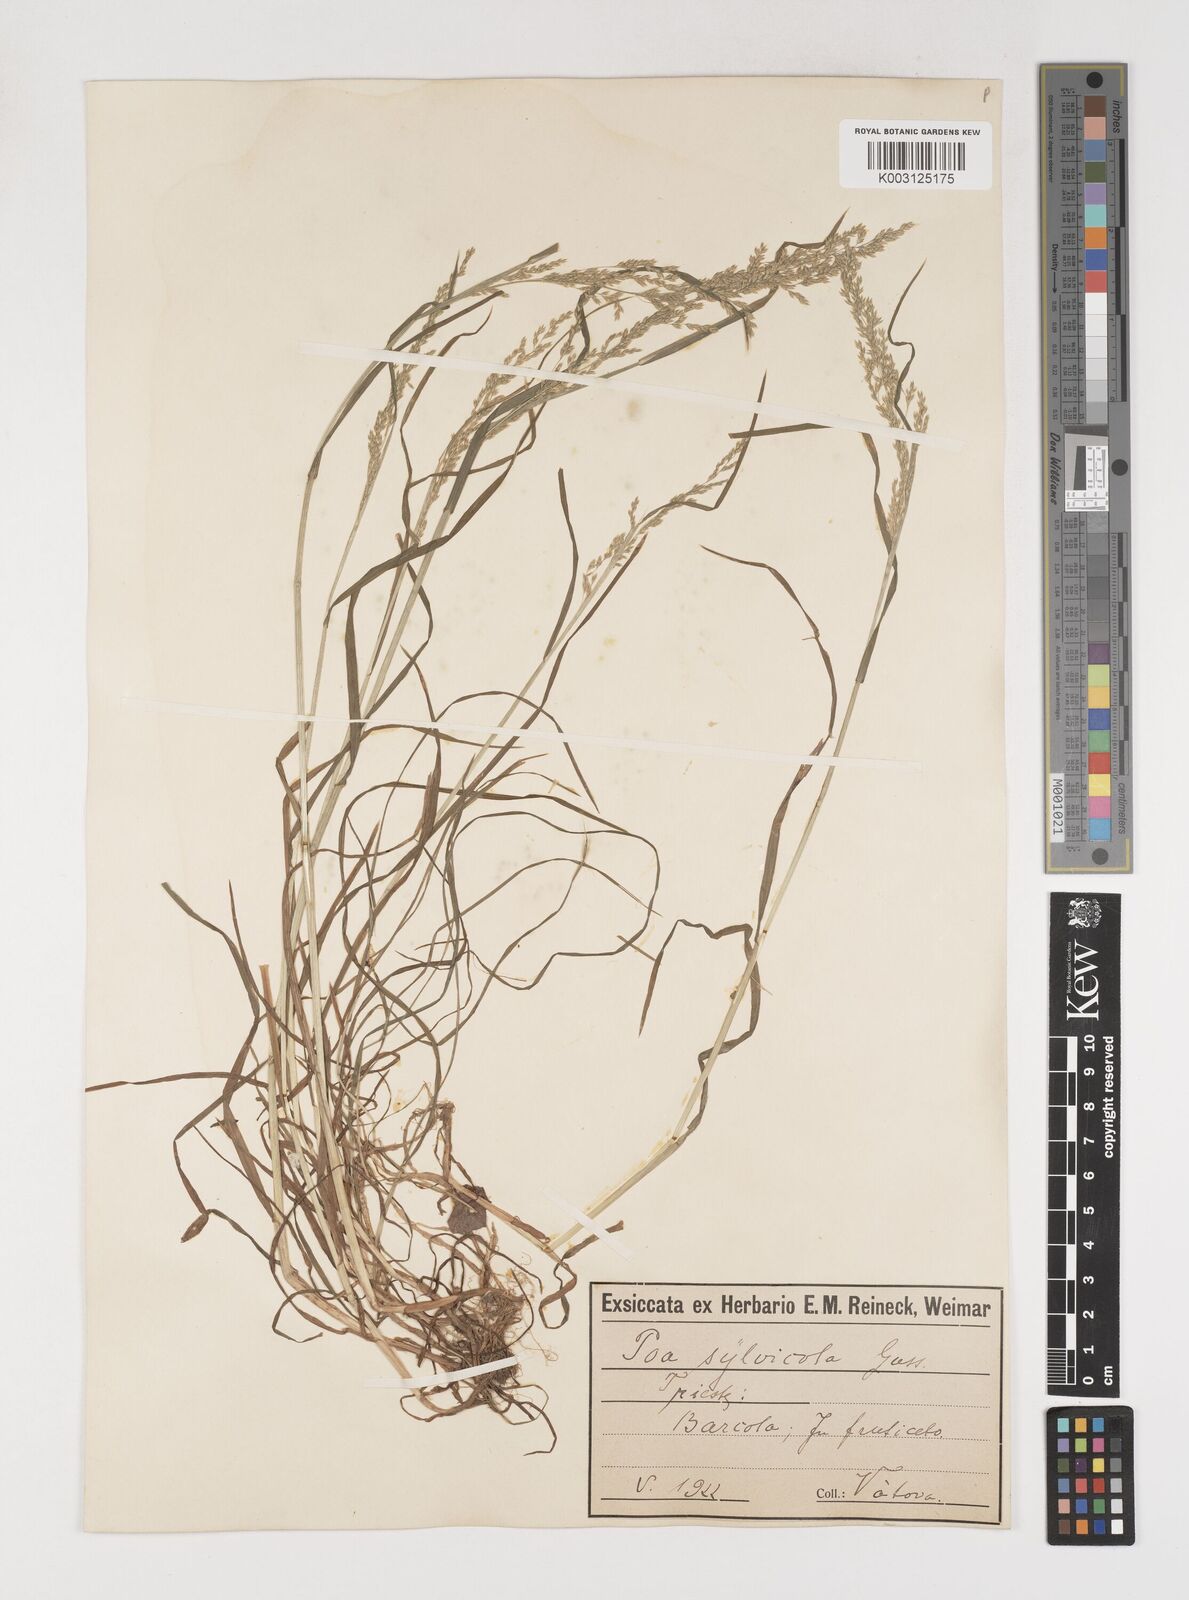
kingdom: Plantae
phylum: Tracheophyta
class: Liliopsida
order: Poales
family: Poaceae
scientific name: Poaceae
